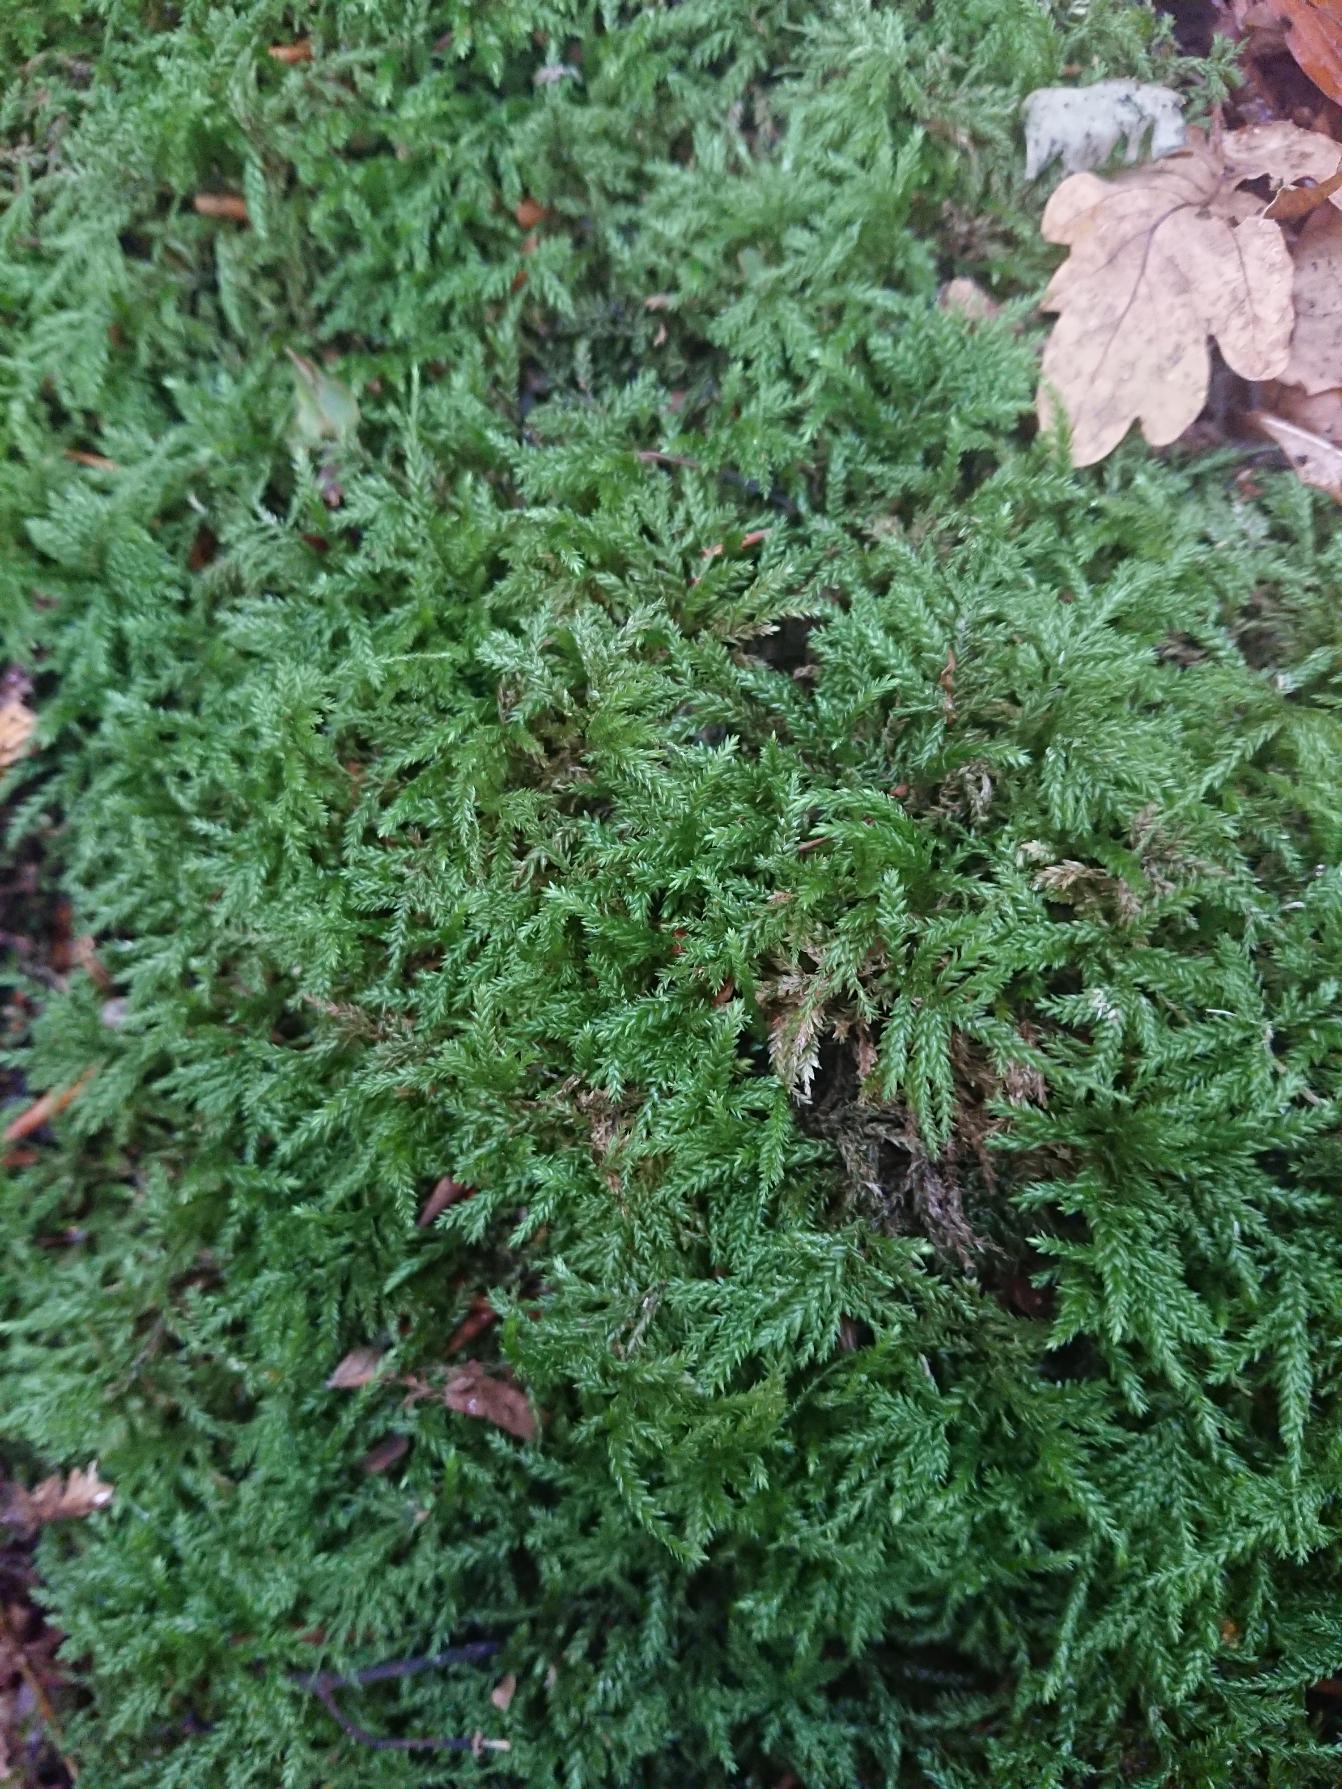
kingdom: Plantae
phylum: Bryophyta
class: Bryopsida
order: Hypnales
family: Lembophyllaceae
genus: Isothecium
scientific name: Isothecium alopecuroides
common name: Stor stammemos
